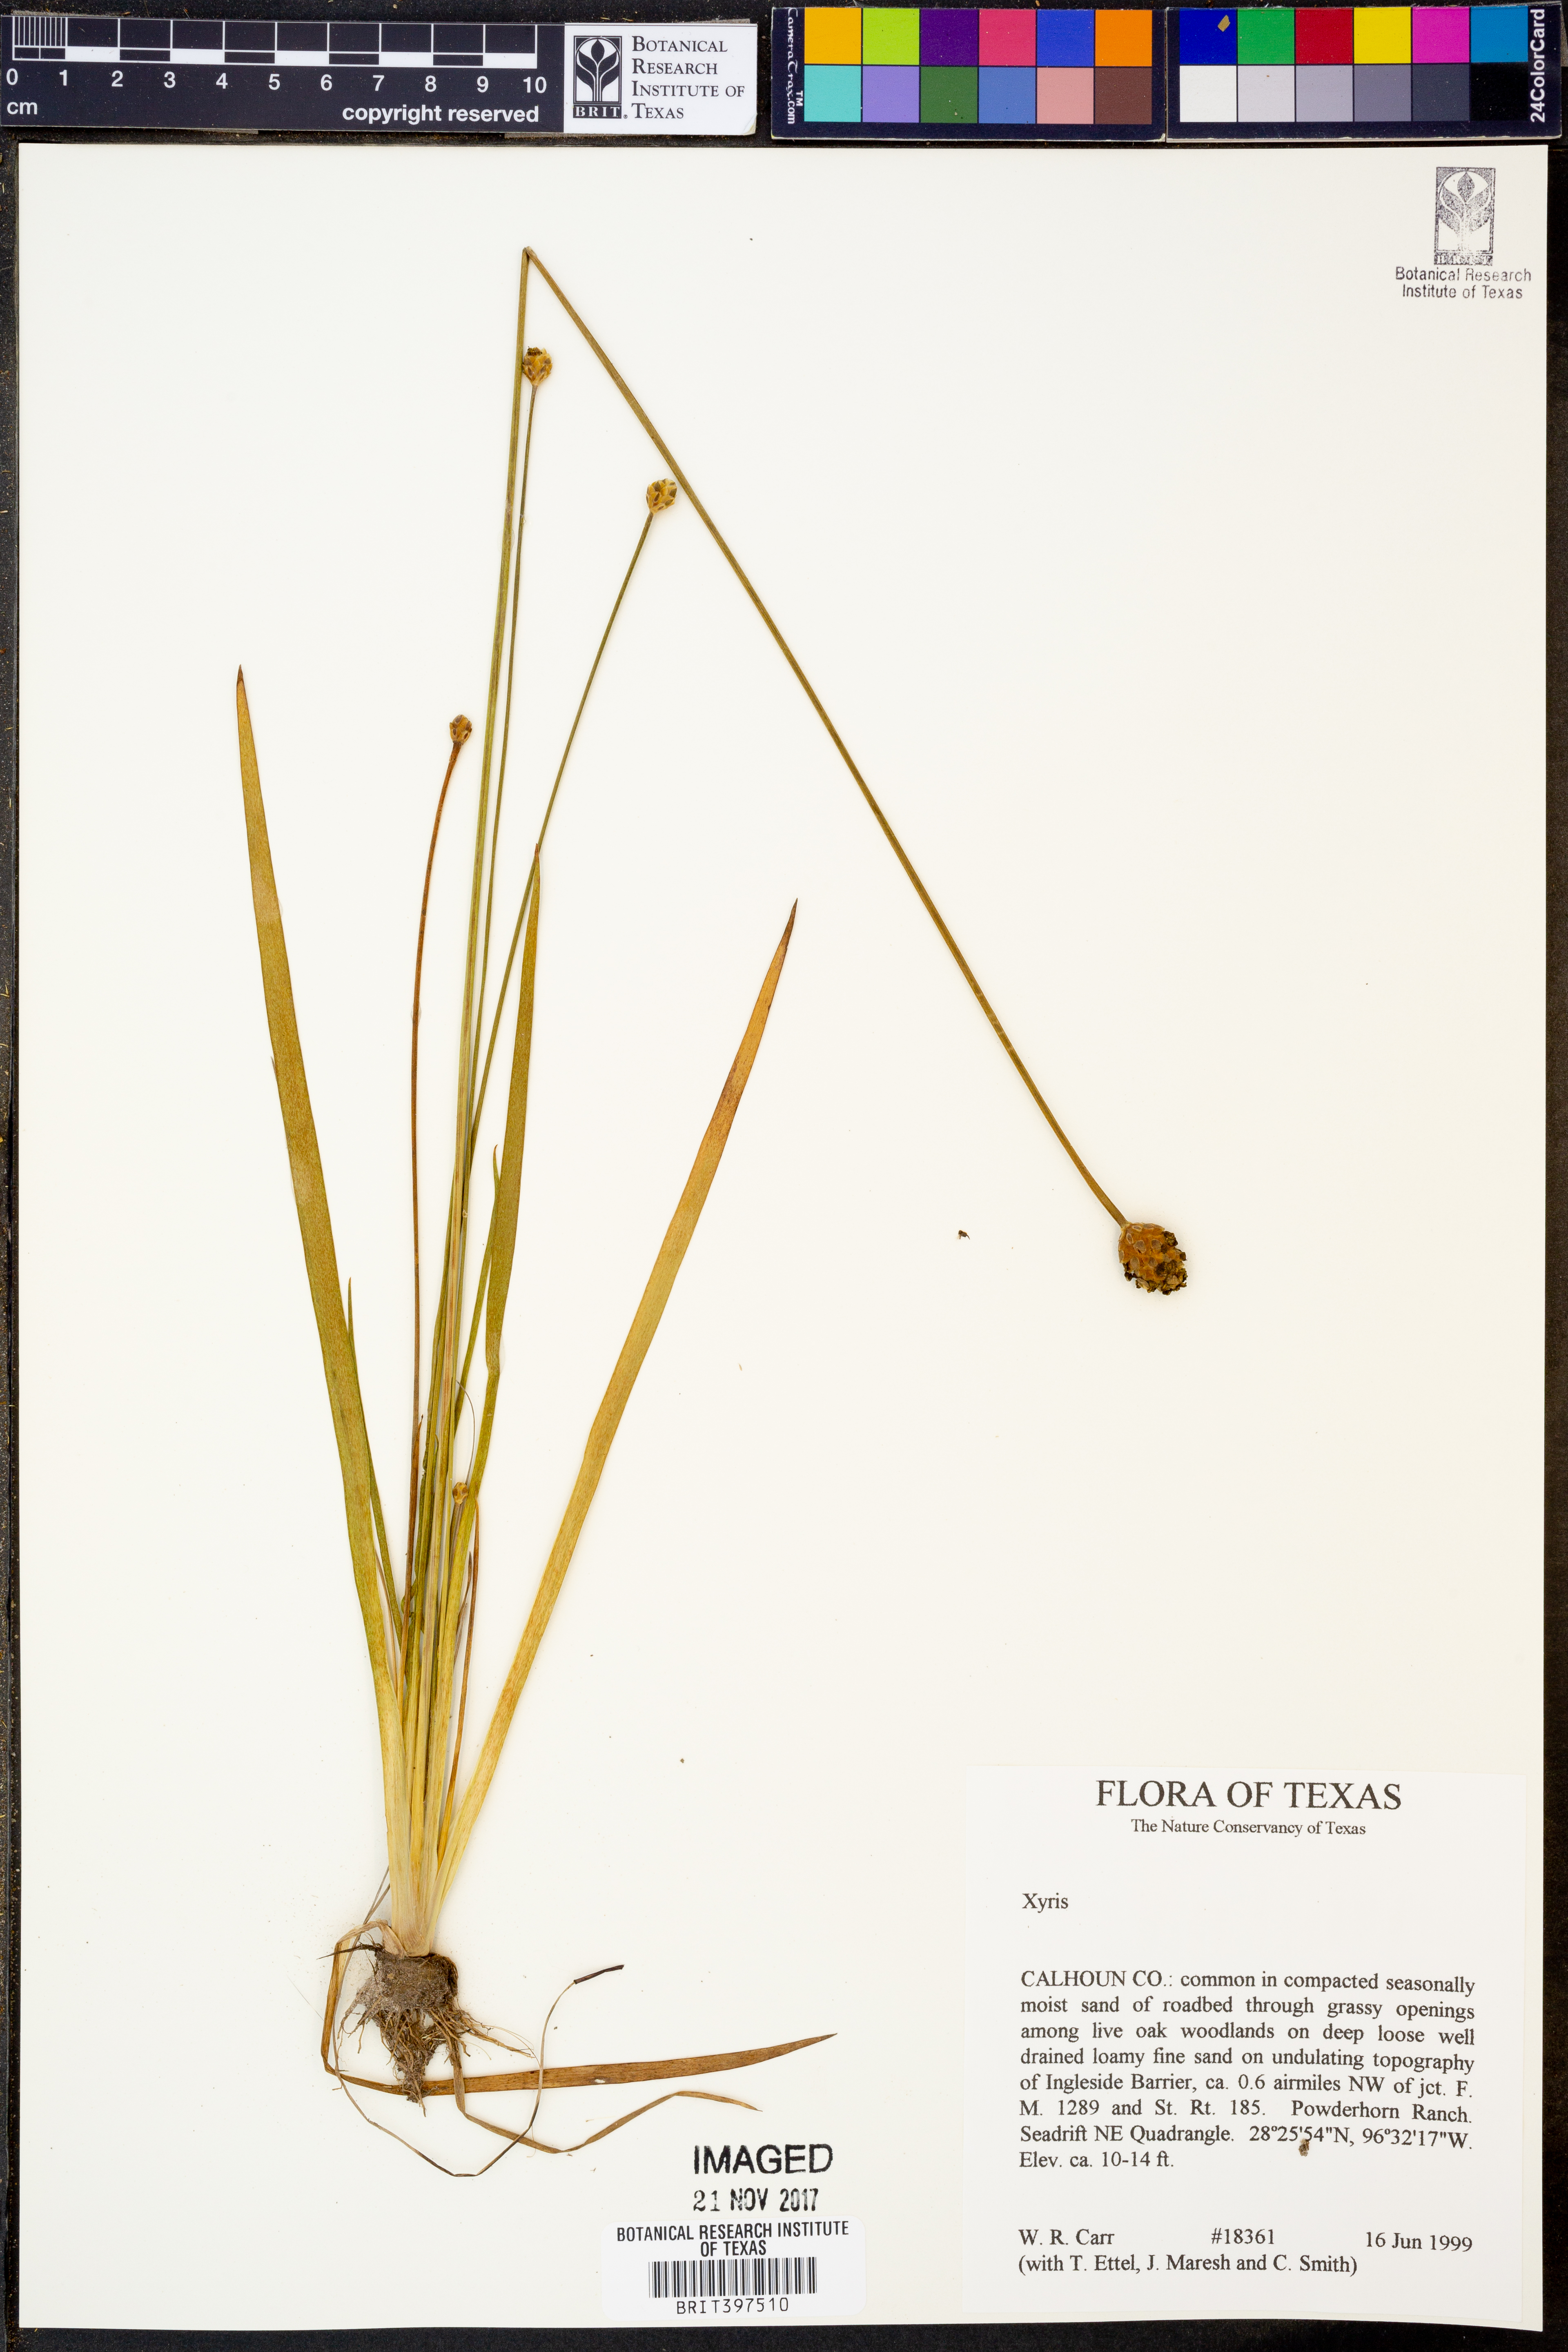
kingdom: Plantae
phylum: Tracheophyta
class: Liliopsida
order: Poales
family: Xyridaceae
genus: Xyris
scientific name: Xyris
